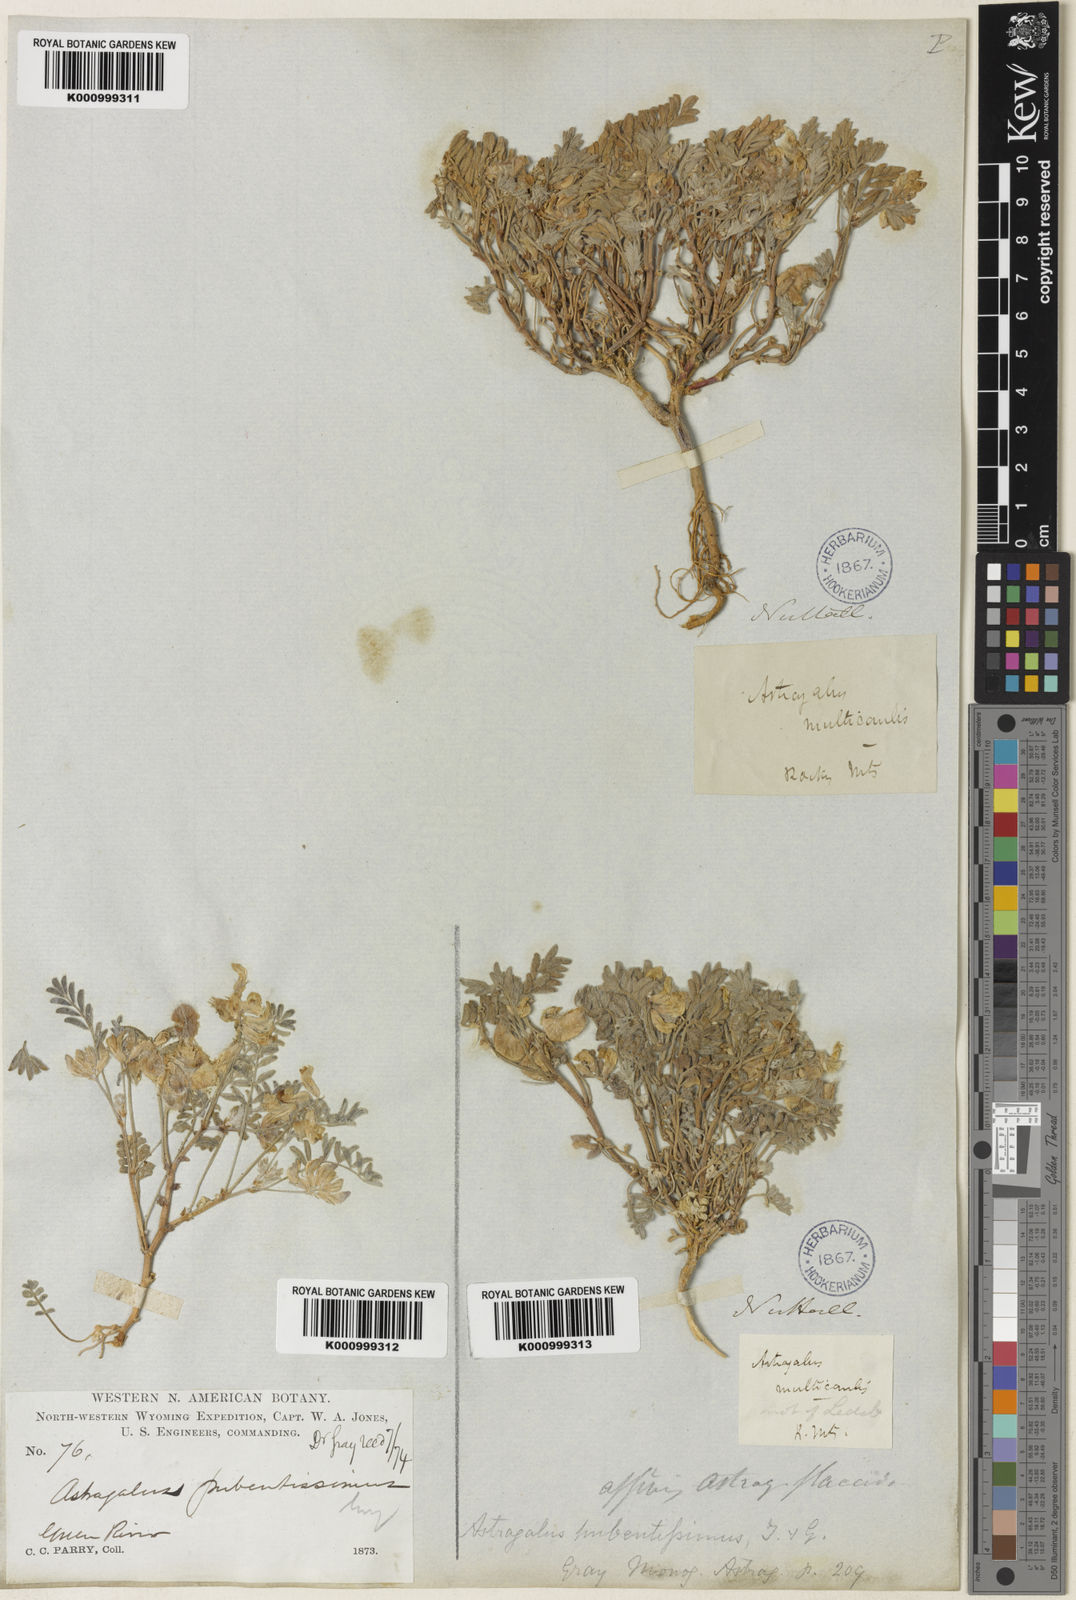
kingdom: Plantae
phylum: Tracheophyta
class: Magnoliopsida
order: Fabales
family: Fabaceae
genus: Astragalus
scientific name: Astragalus pubentissimus
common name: Green river milkvetch
